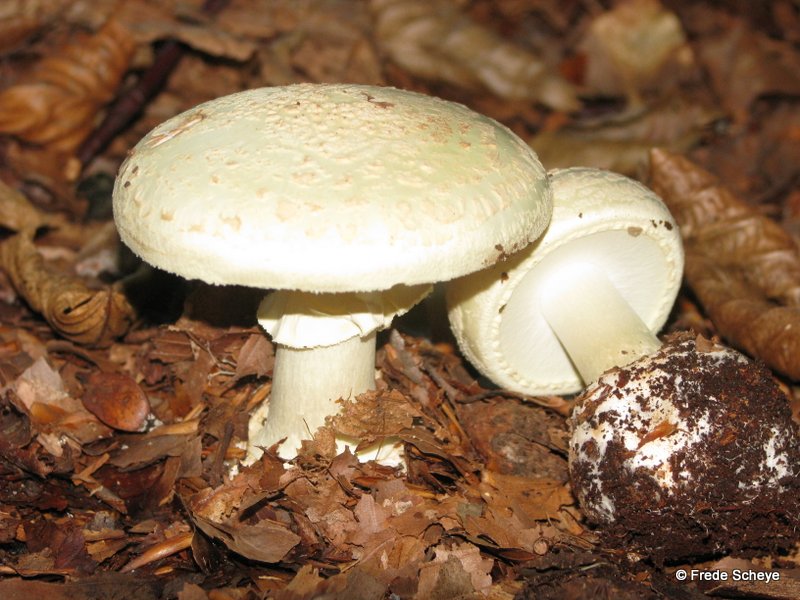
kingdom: Fungi
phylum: Basidiomycota
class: Agaricomycetes
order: Agaricales
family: Amanitaceae
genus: Amanita
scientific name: Amanita citrina
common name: kugleknoldet fluesvamp
